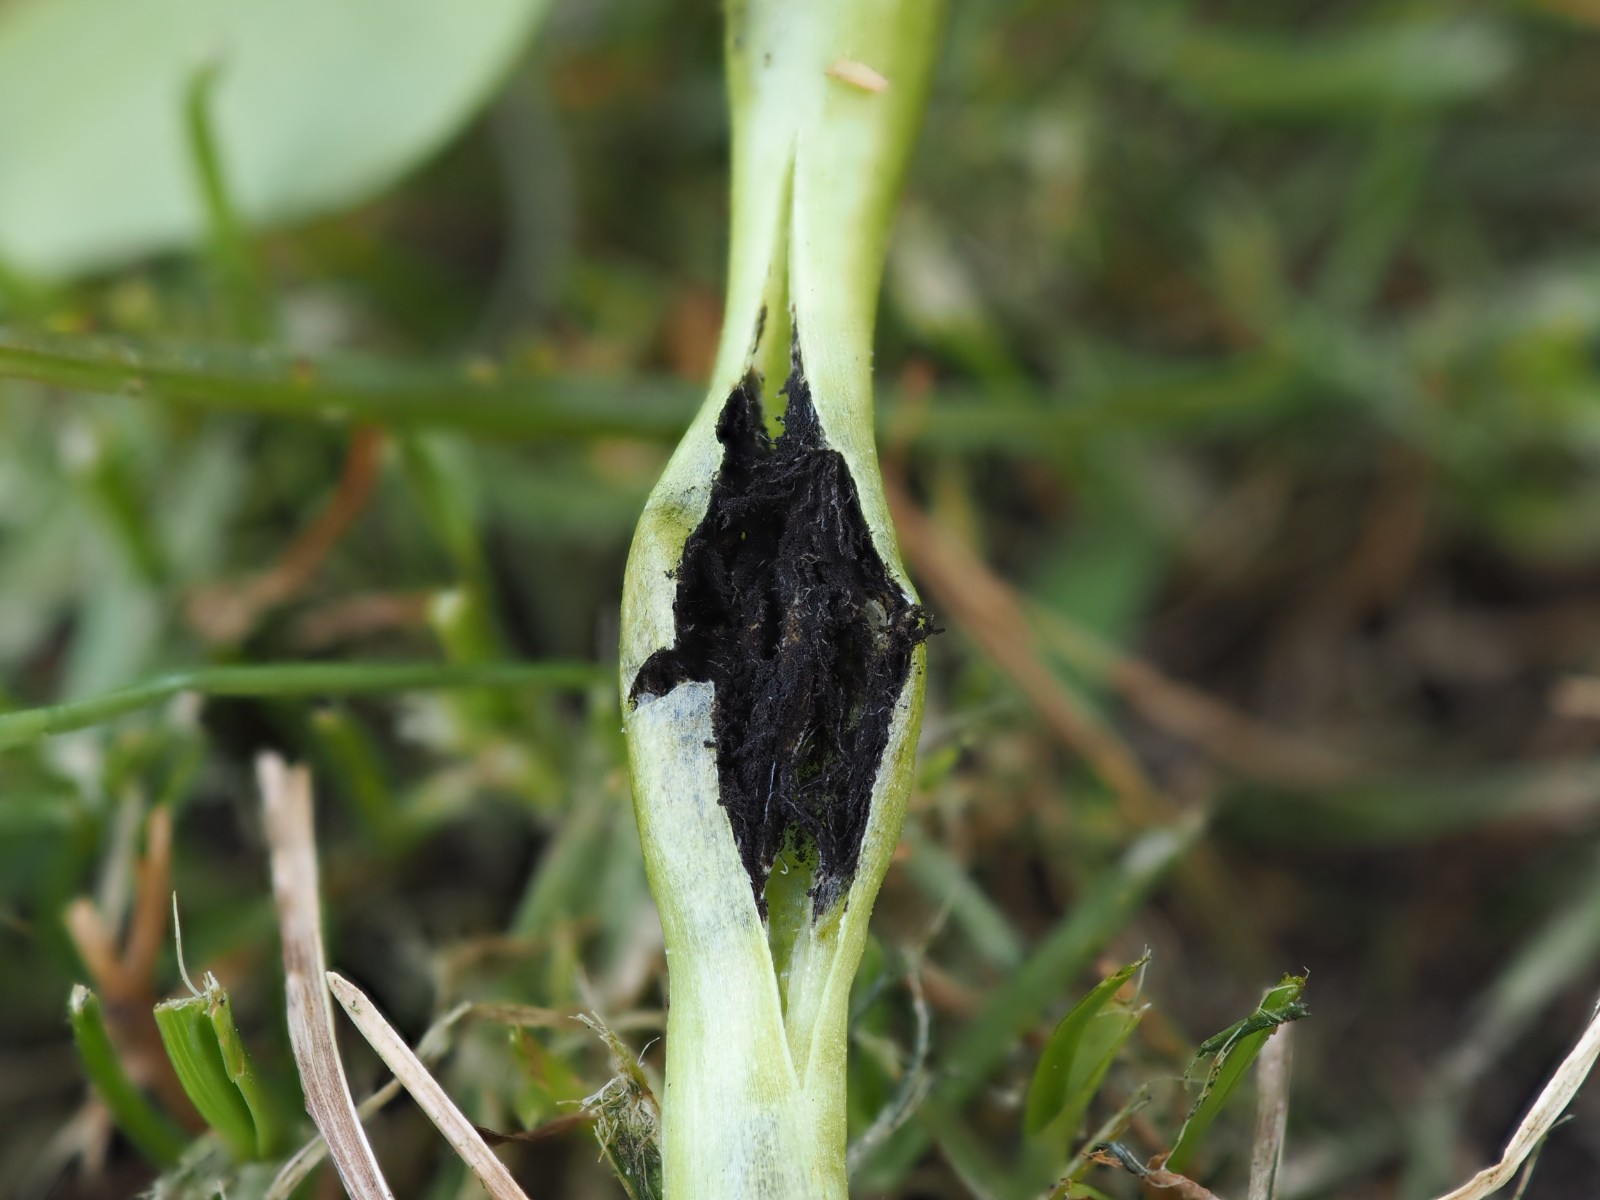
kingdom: Fungi
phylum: Basidiomycota
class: Ustilaginomycetes
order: Urocystidales
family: Urocystidaceae
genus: Urocystis
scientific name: Urocystis eranthidis
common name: erantis-brand
